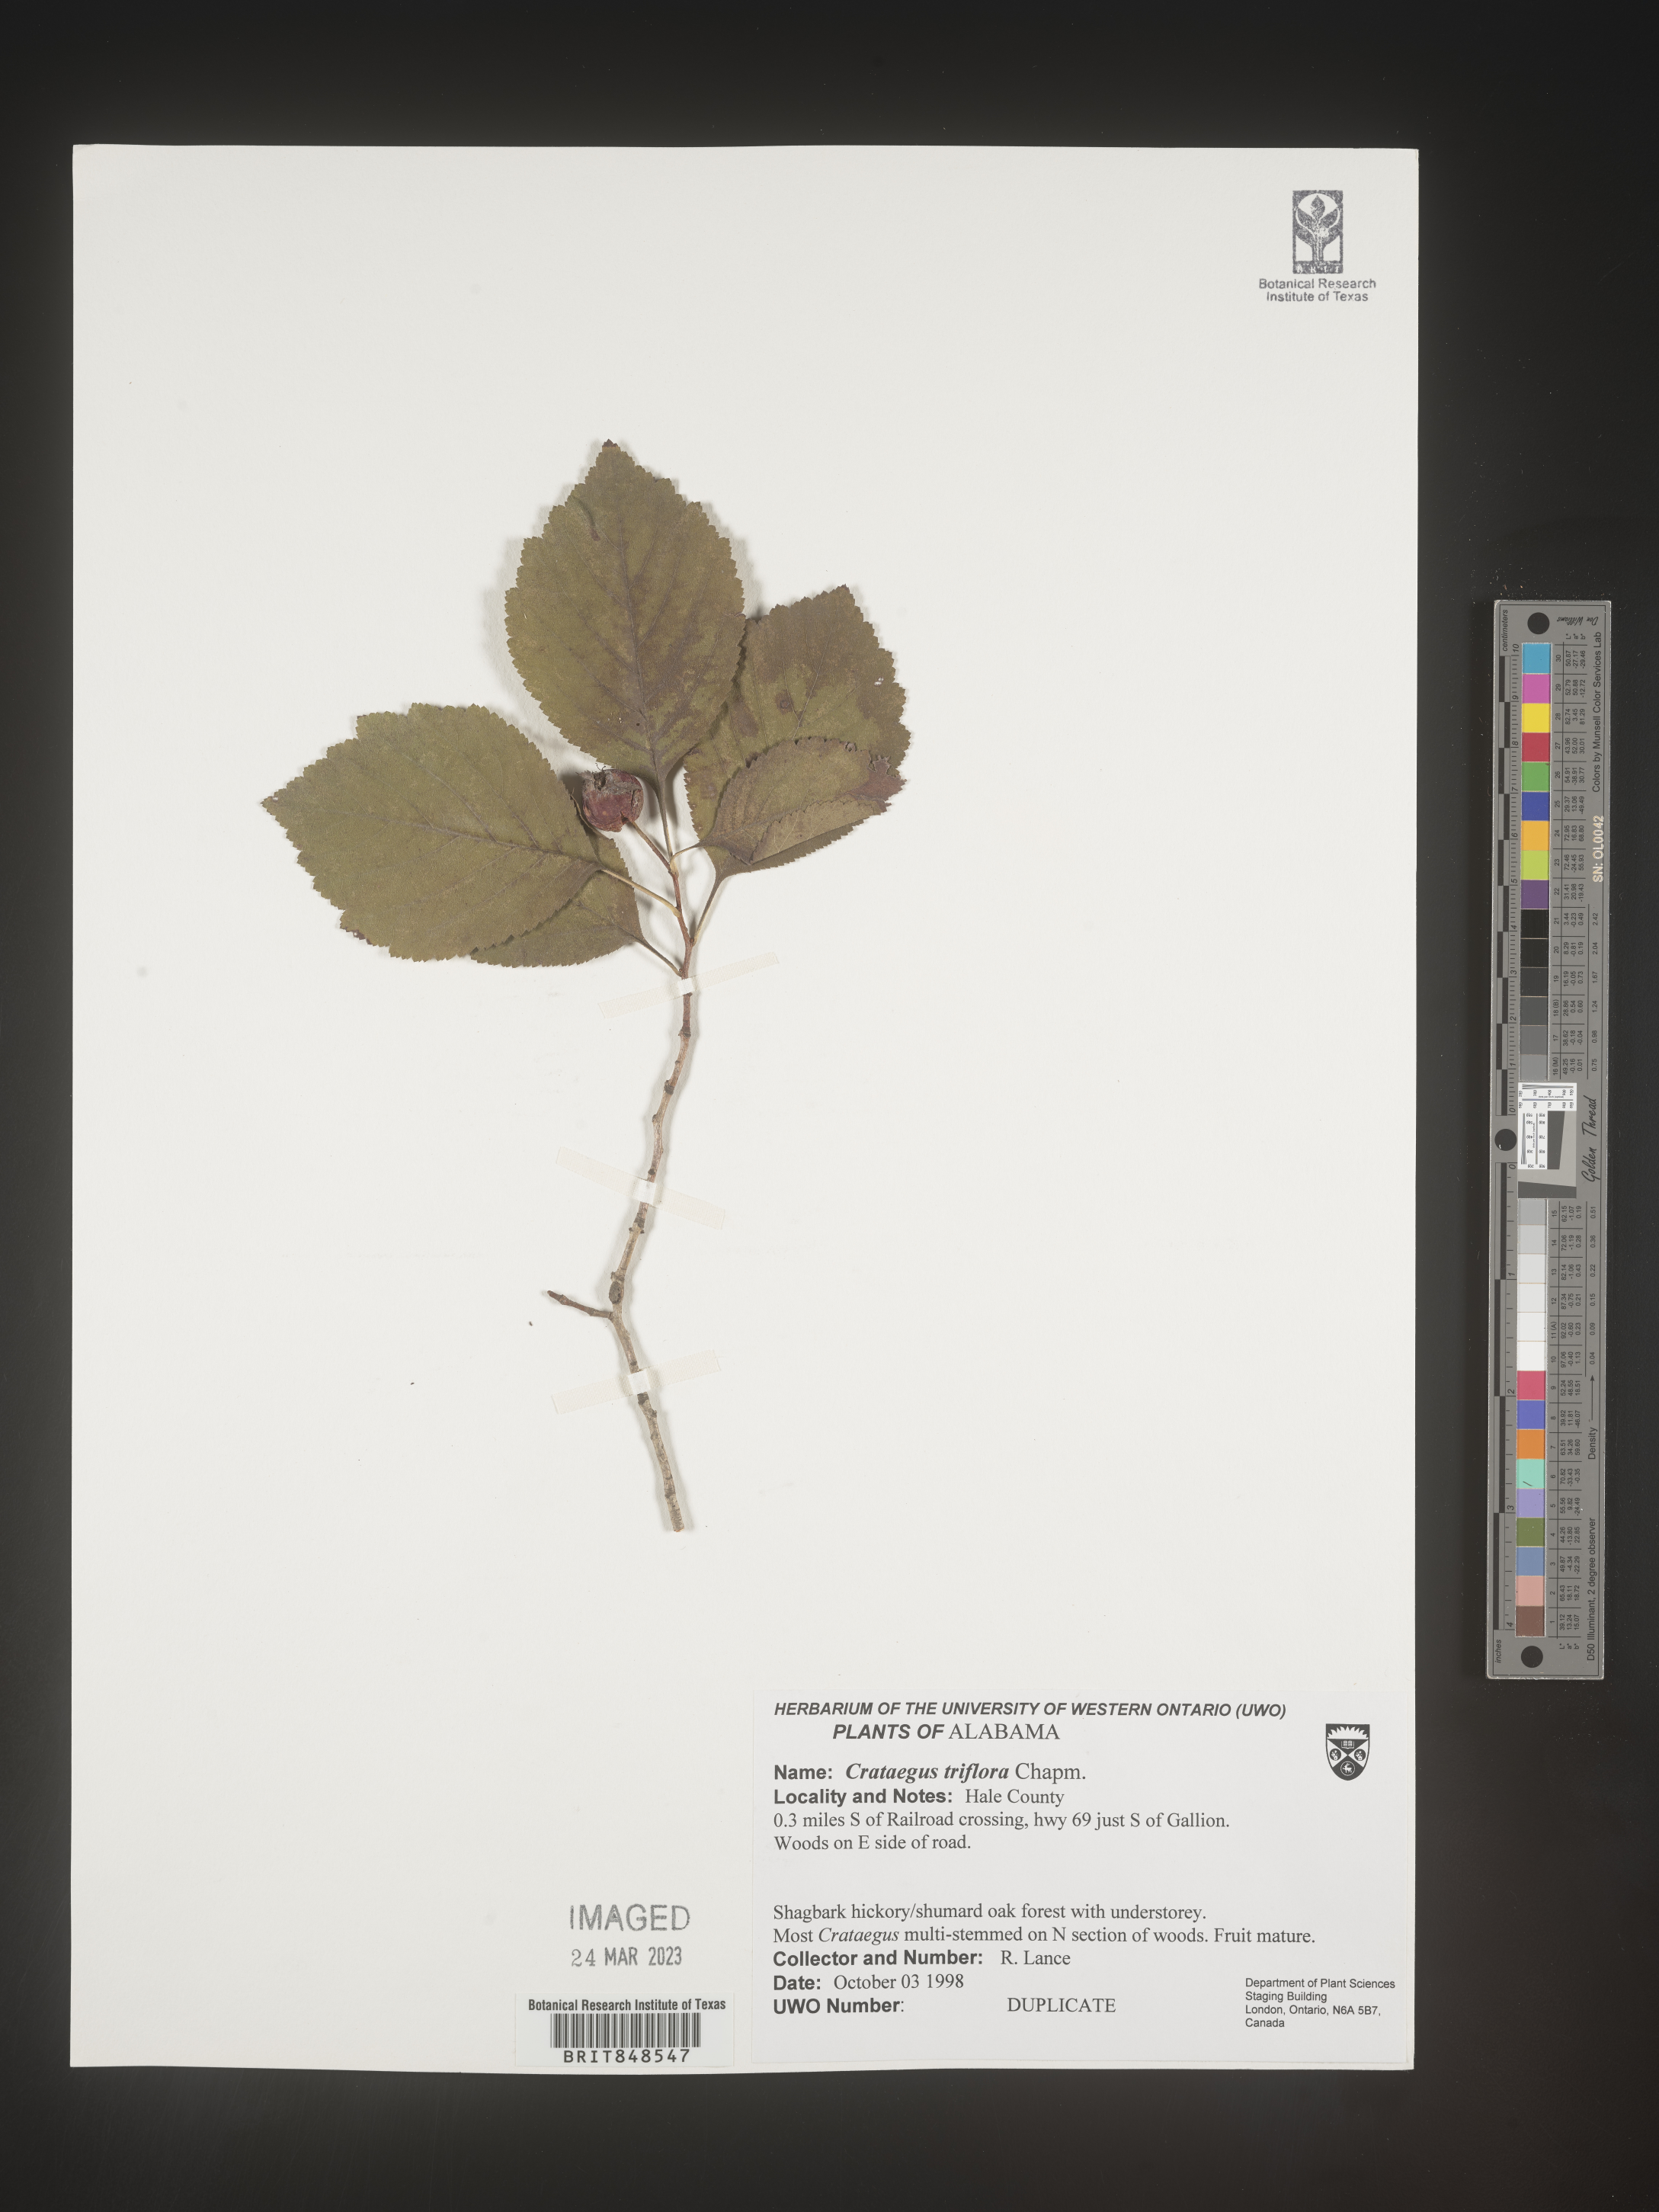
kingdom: Plantae
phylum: Tracheophyta
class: Magnoliopsida
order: Rosales
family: Rosaceae
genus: Crataegus
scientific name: Crataegus
